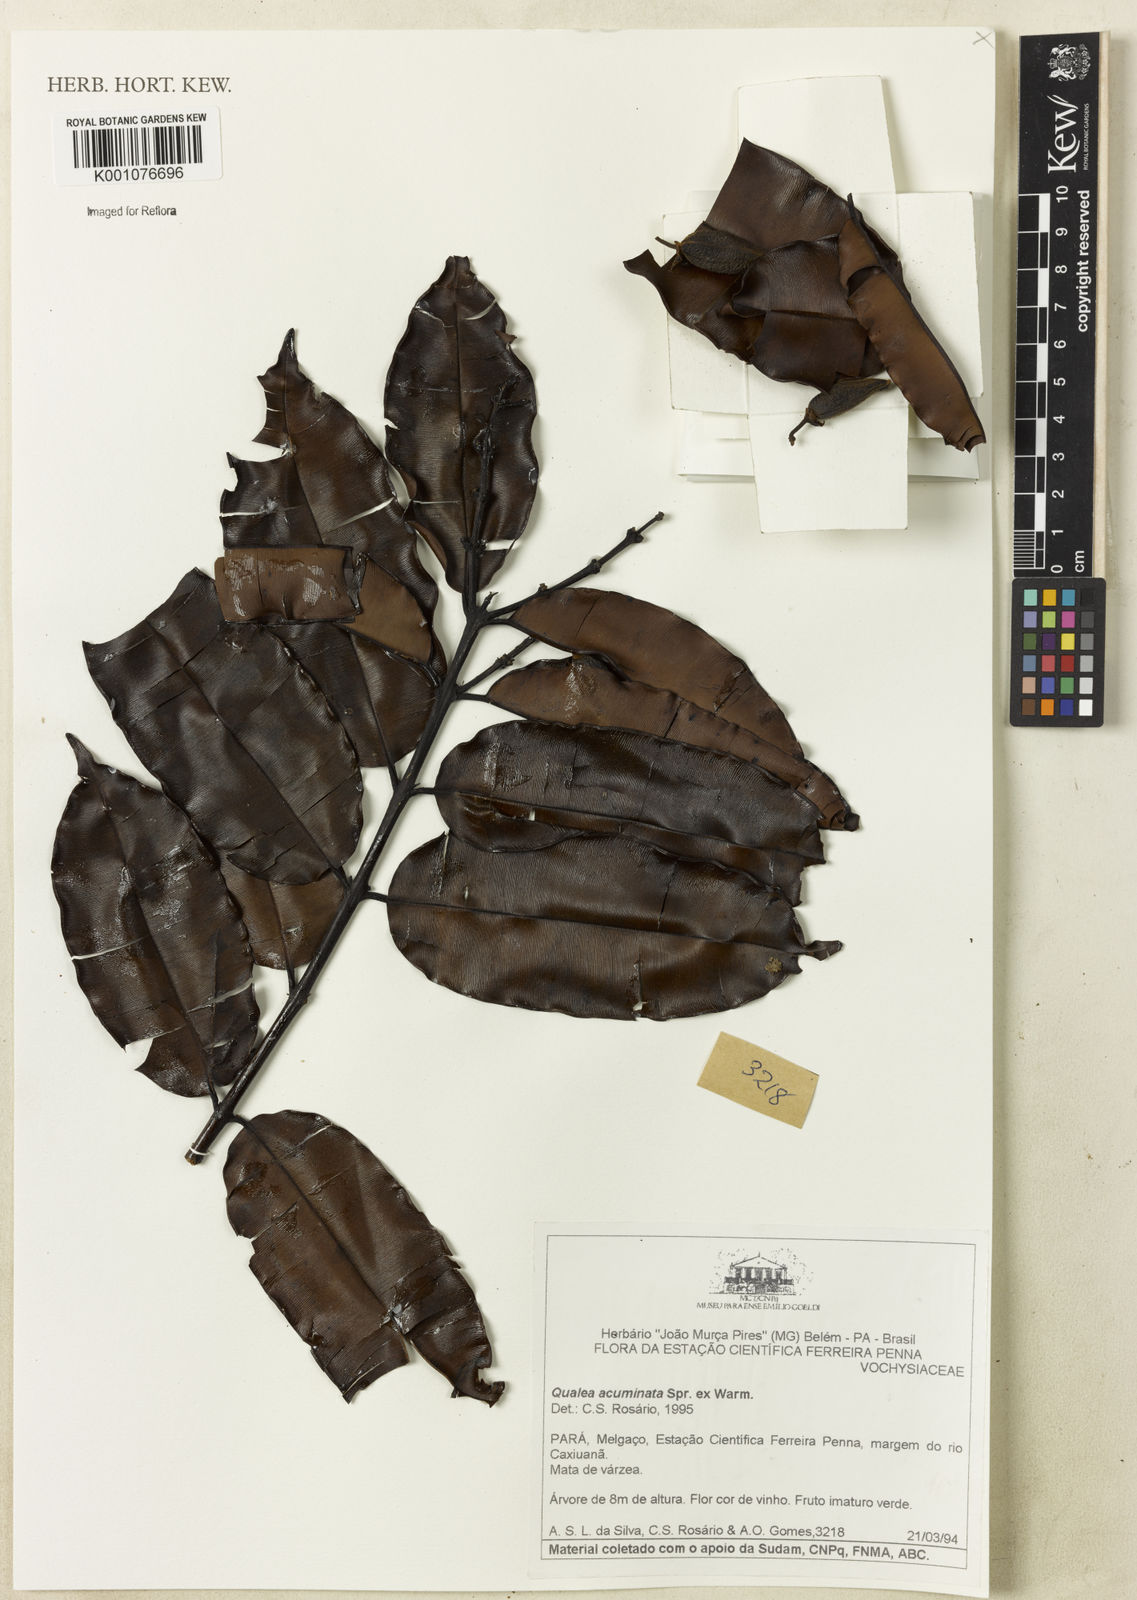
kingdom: Plantae
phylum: Tracheophyta
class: Magnoliopsida
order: Myrtales
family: Vochysiaceae
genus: Qualea
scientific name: Qualea acuminata
